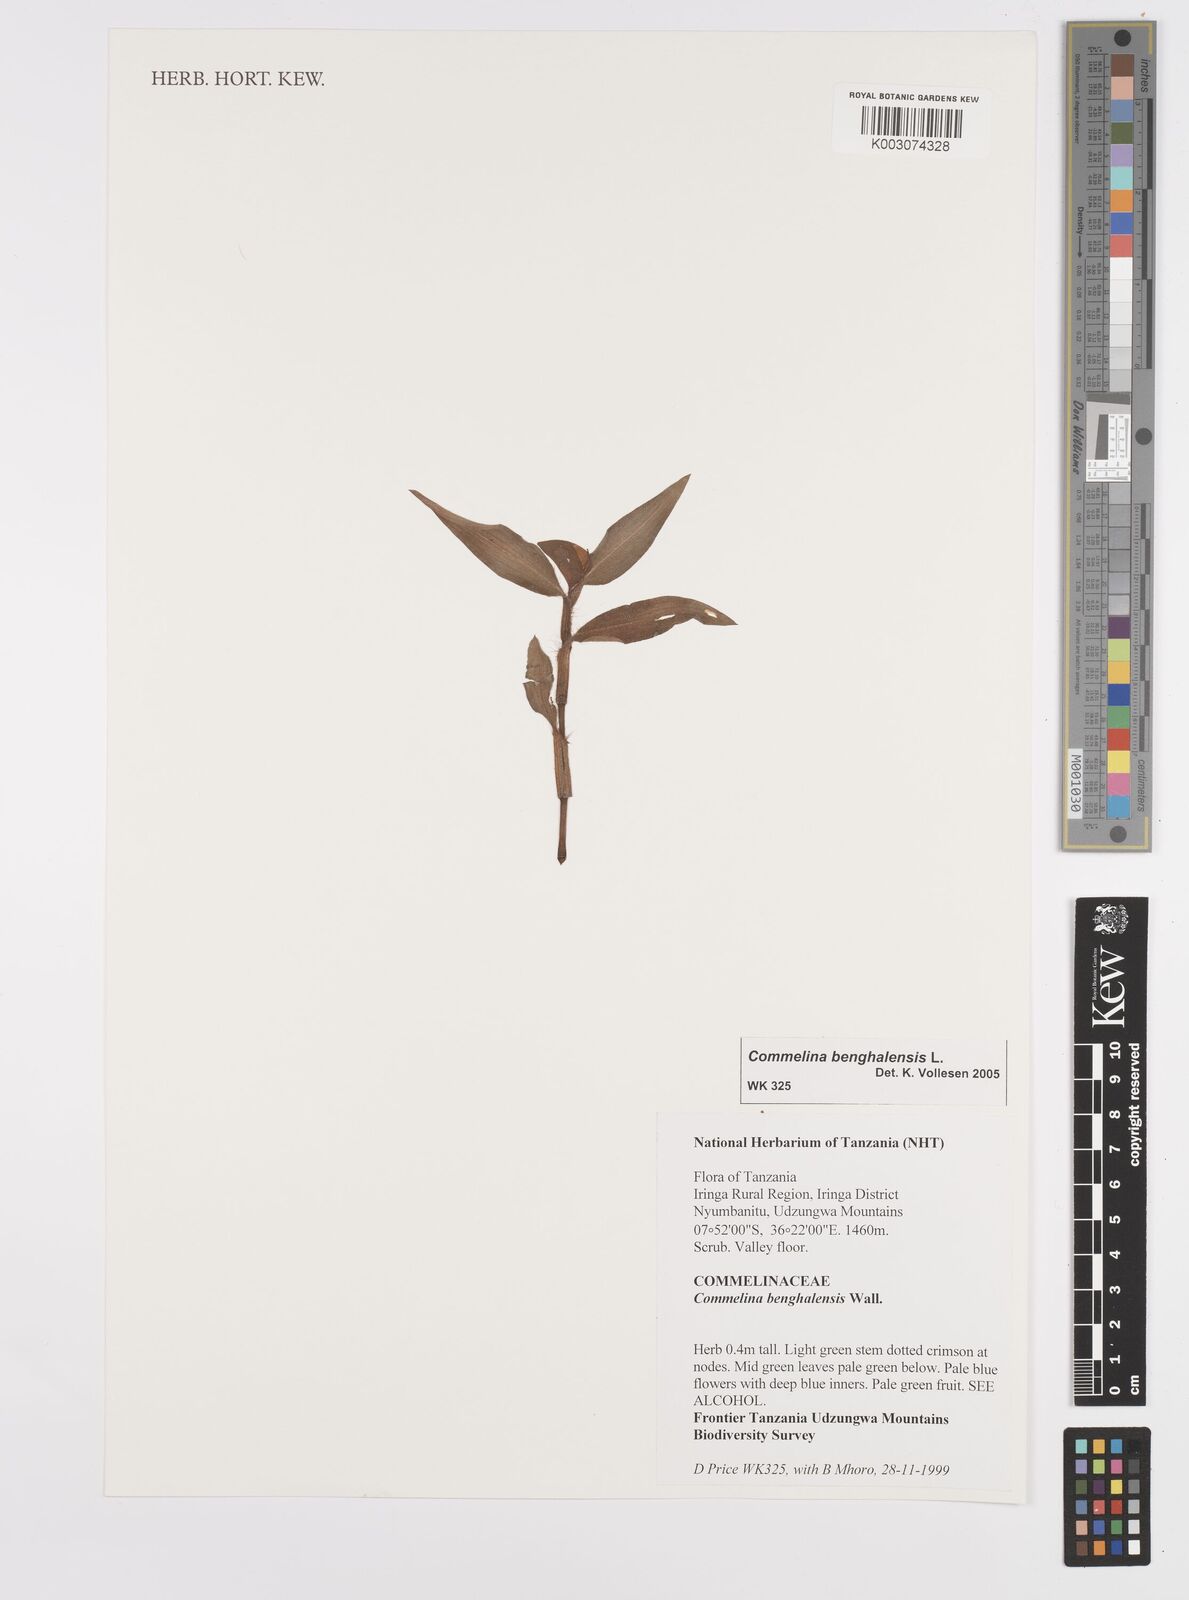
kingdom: Plantae
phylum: Tracheophyta
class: Liliopsida
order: Commelinales
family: Commelinaceae
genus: Commelina
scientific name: Commelina benghalensis
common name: Jio
